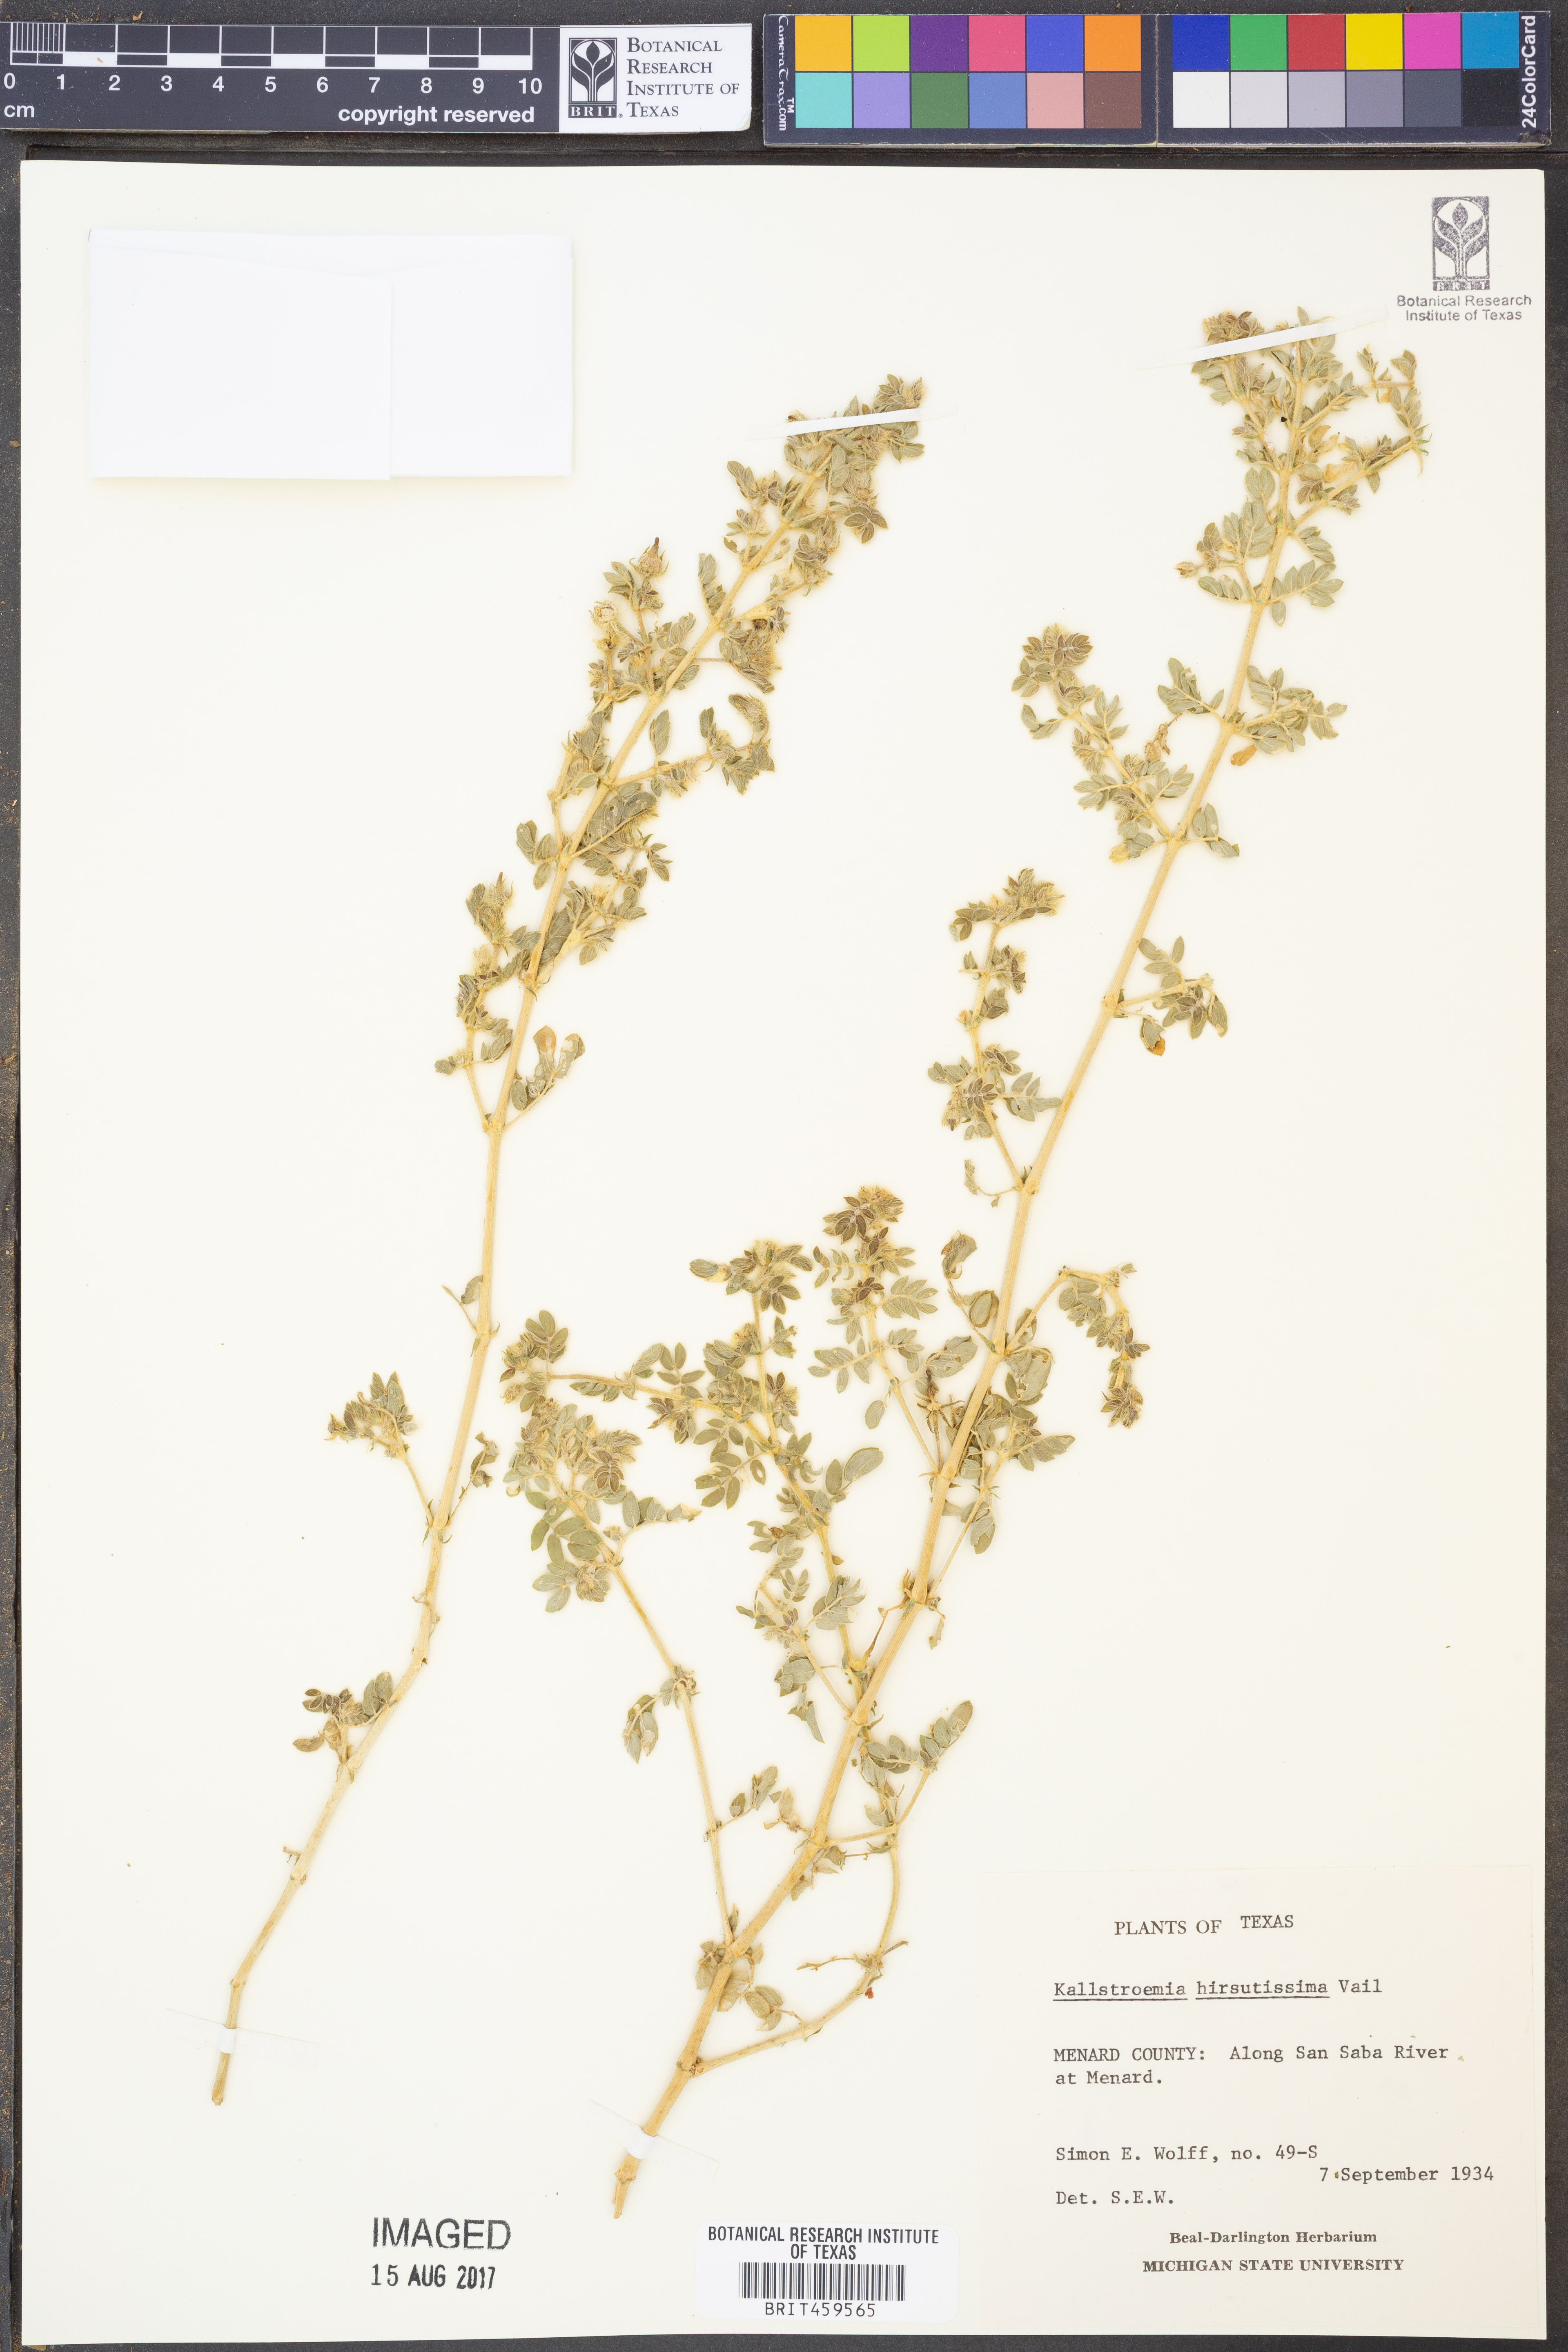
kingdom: Plantae
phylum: Tracheophyta
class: Magnoliopsida
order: Zygophyllales
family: Zygophyllaceae
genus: Kallstroemia
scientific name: Kallstroemia hirsutissima
